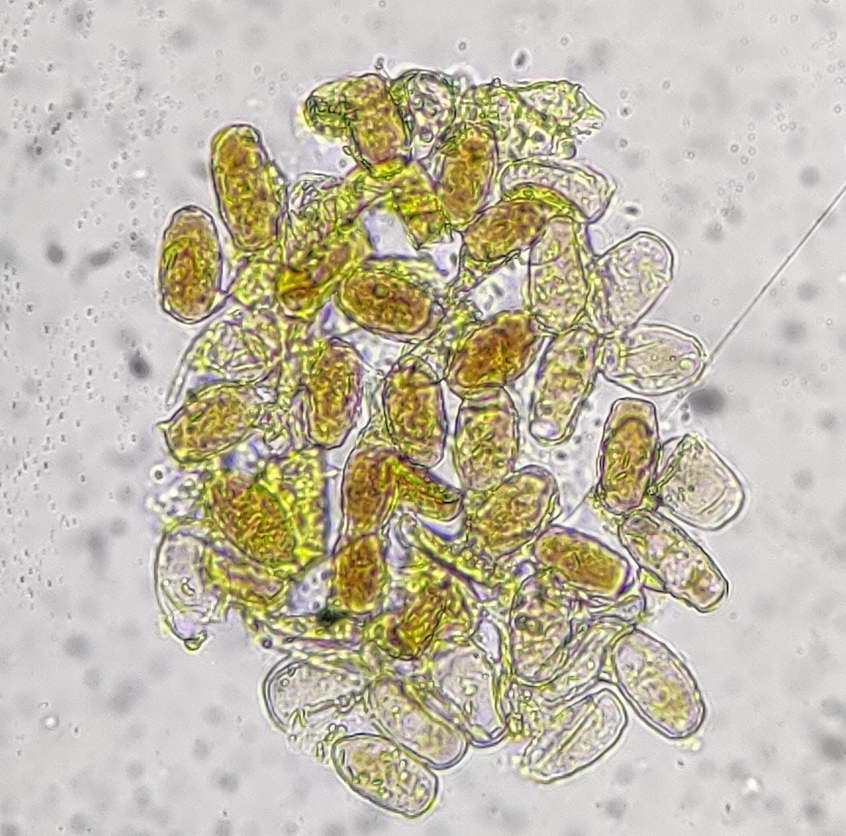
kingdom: Fungi
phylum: Ascomycota
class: Leotiomycetes
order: Helotiales
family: Erysiphaceae
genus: Podosphaera
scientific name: Podosphaera pannosa
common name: Rose mildew
